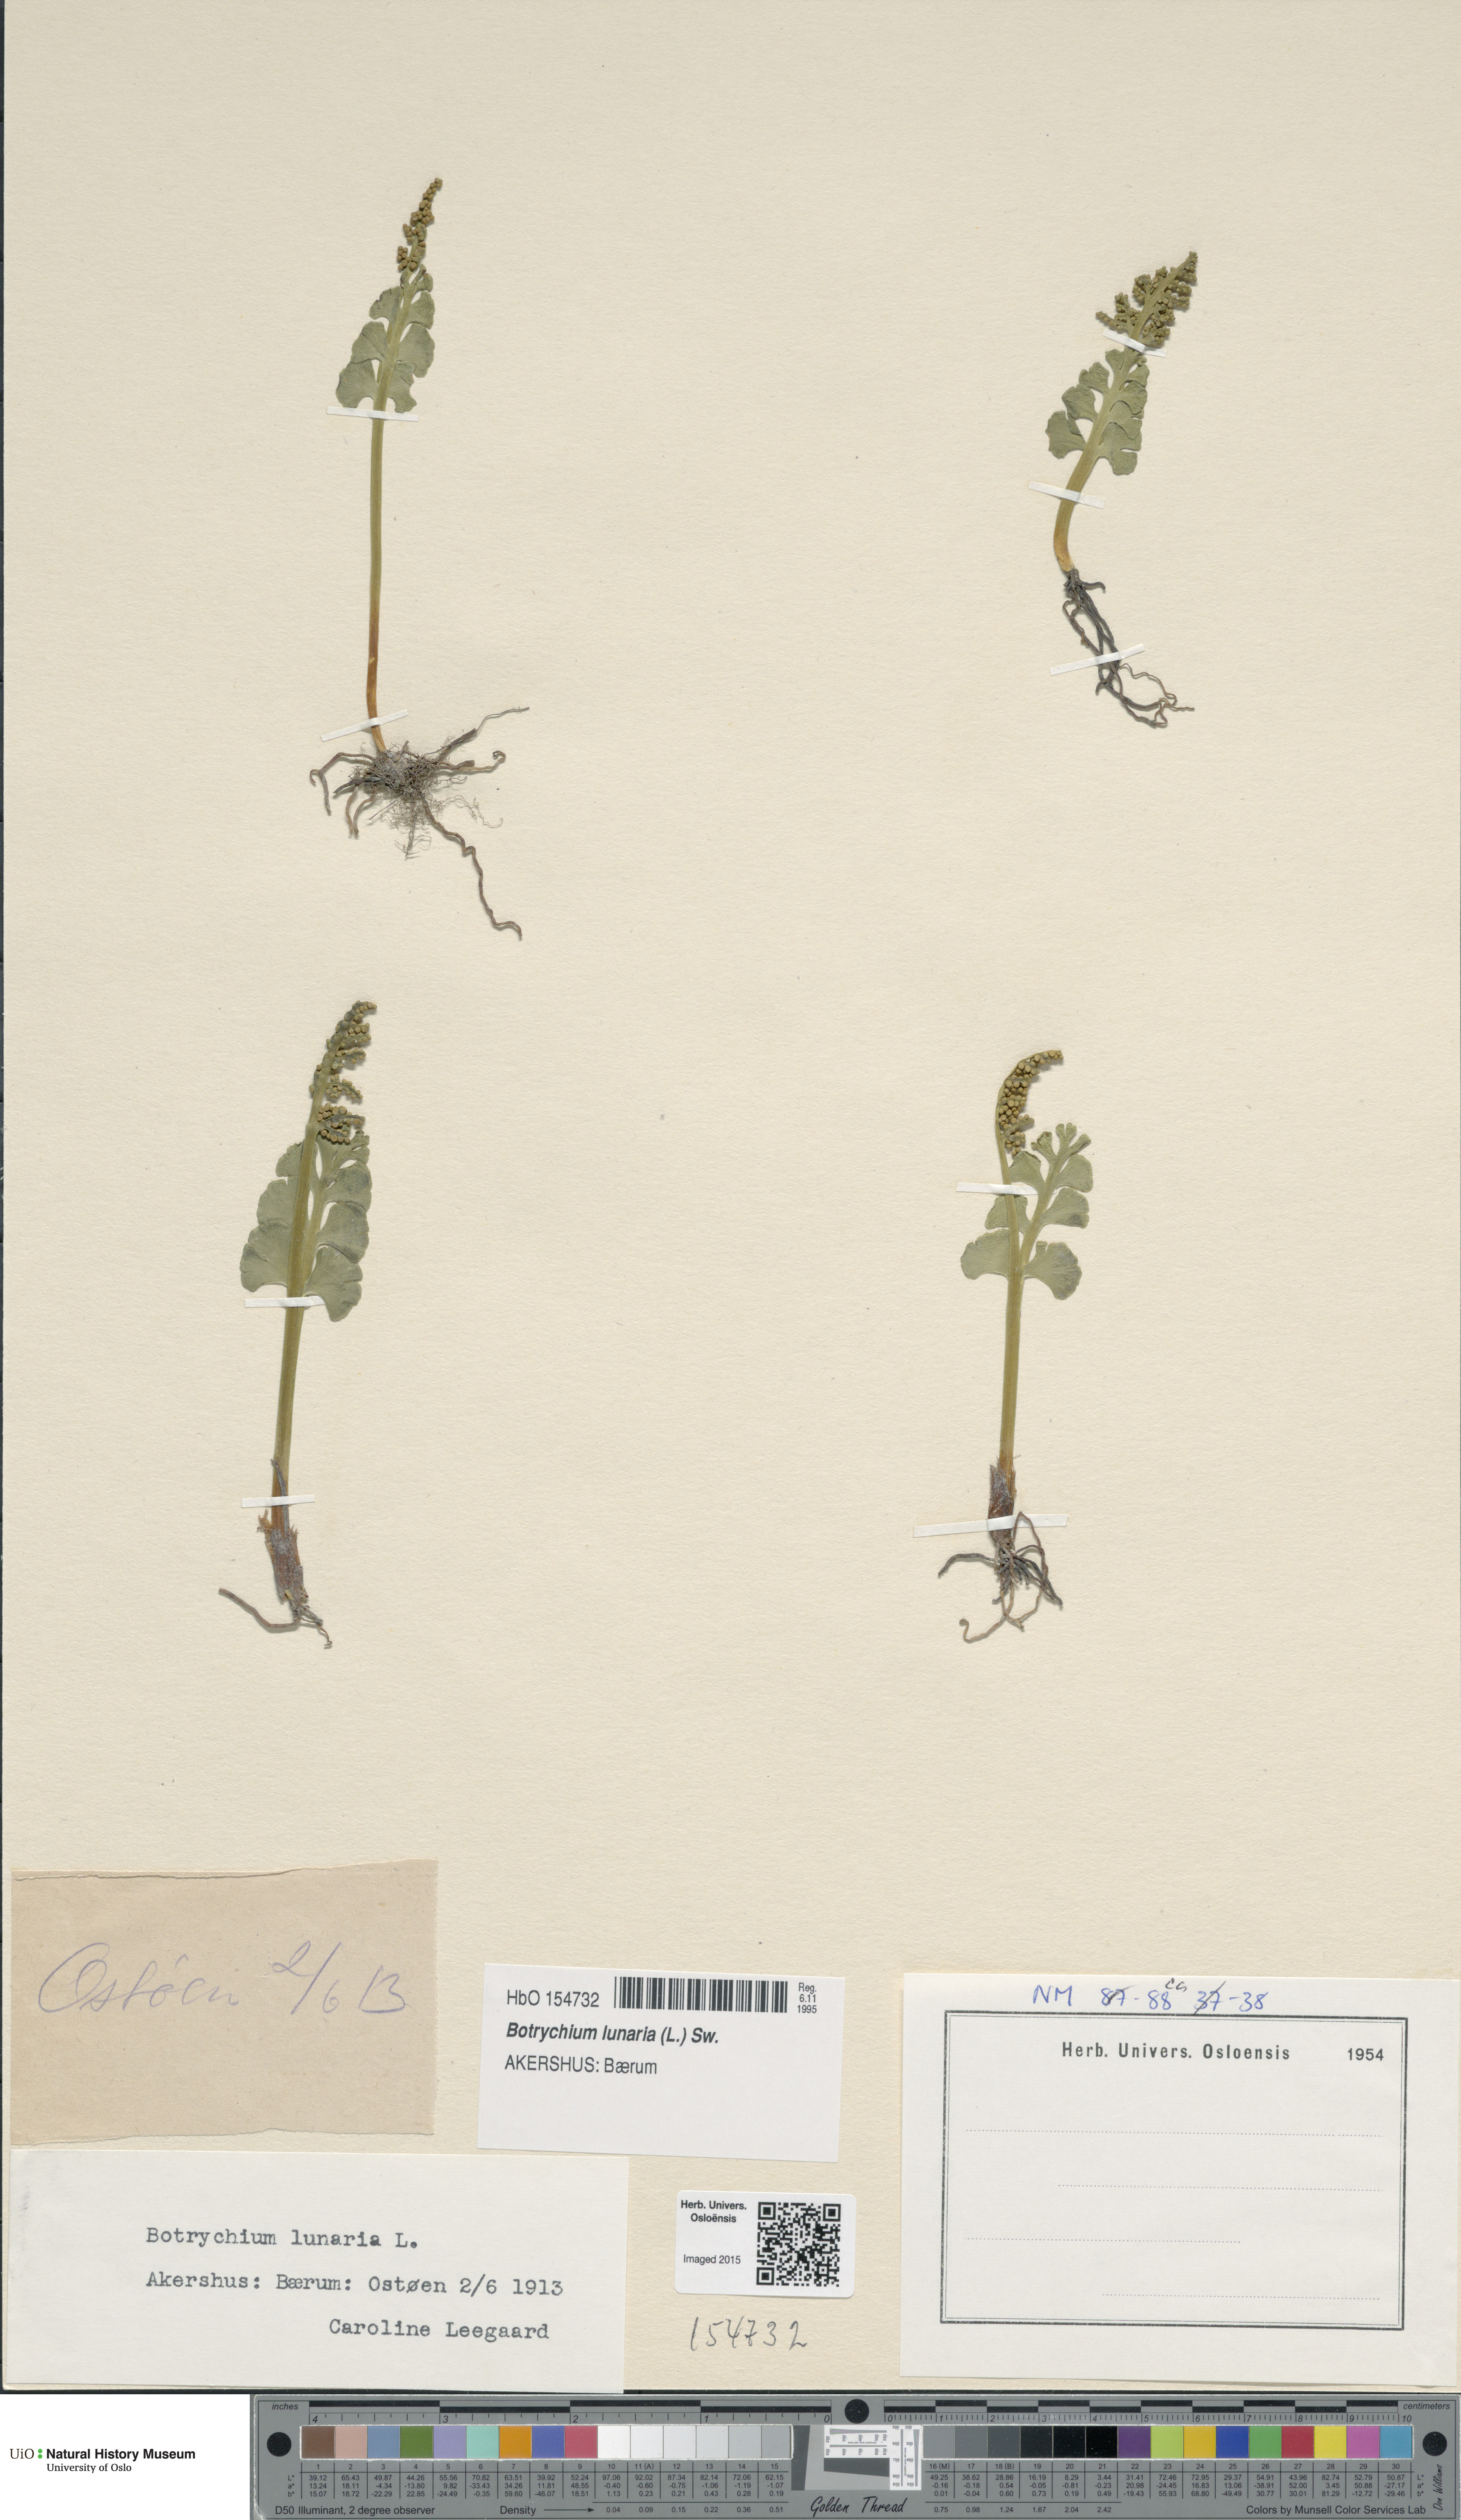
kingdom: Plantae
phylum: Tracheophyta
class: Polypodiopsida
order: Ophioglossales
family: Ophioglossaceae
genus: Botrychium
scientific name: Botrychium lunaria
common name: Moonwort
